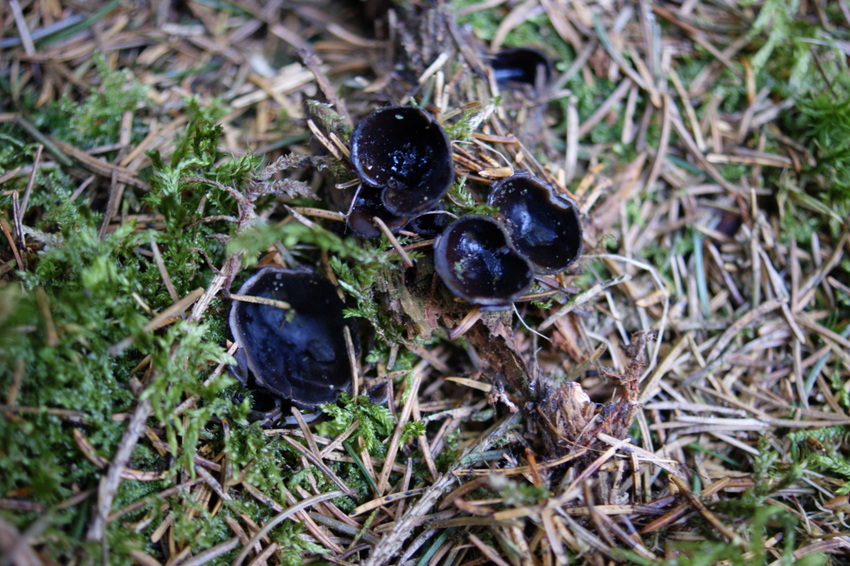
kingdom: Fungi
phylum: Ascomycota
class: Pezizomycetes
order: Pezizales
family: Sarcosomataceae
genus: Pseudoplectania
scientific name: Pseudoplectania nigrella
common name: almindelig sortbæger
